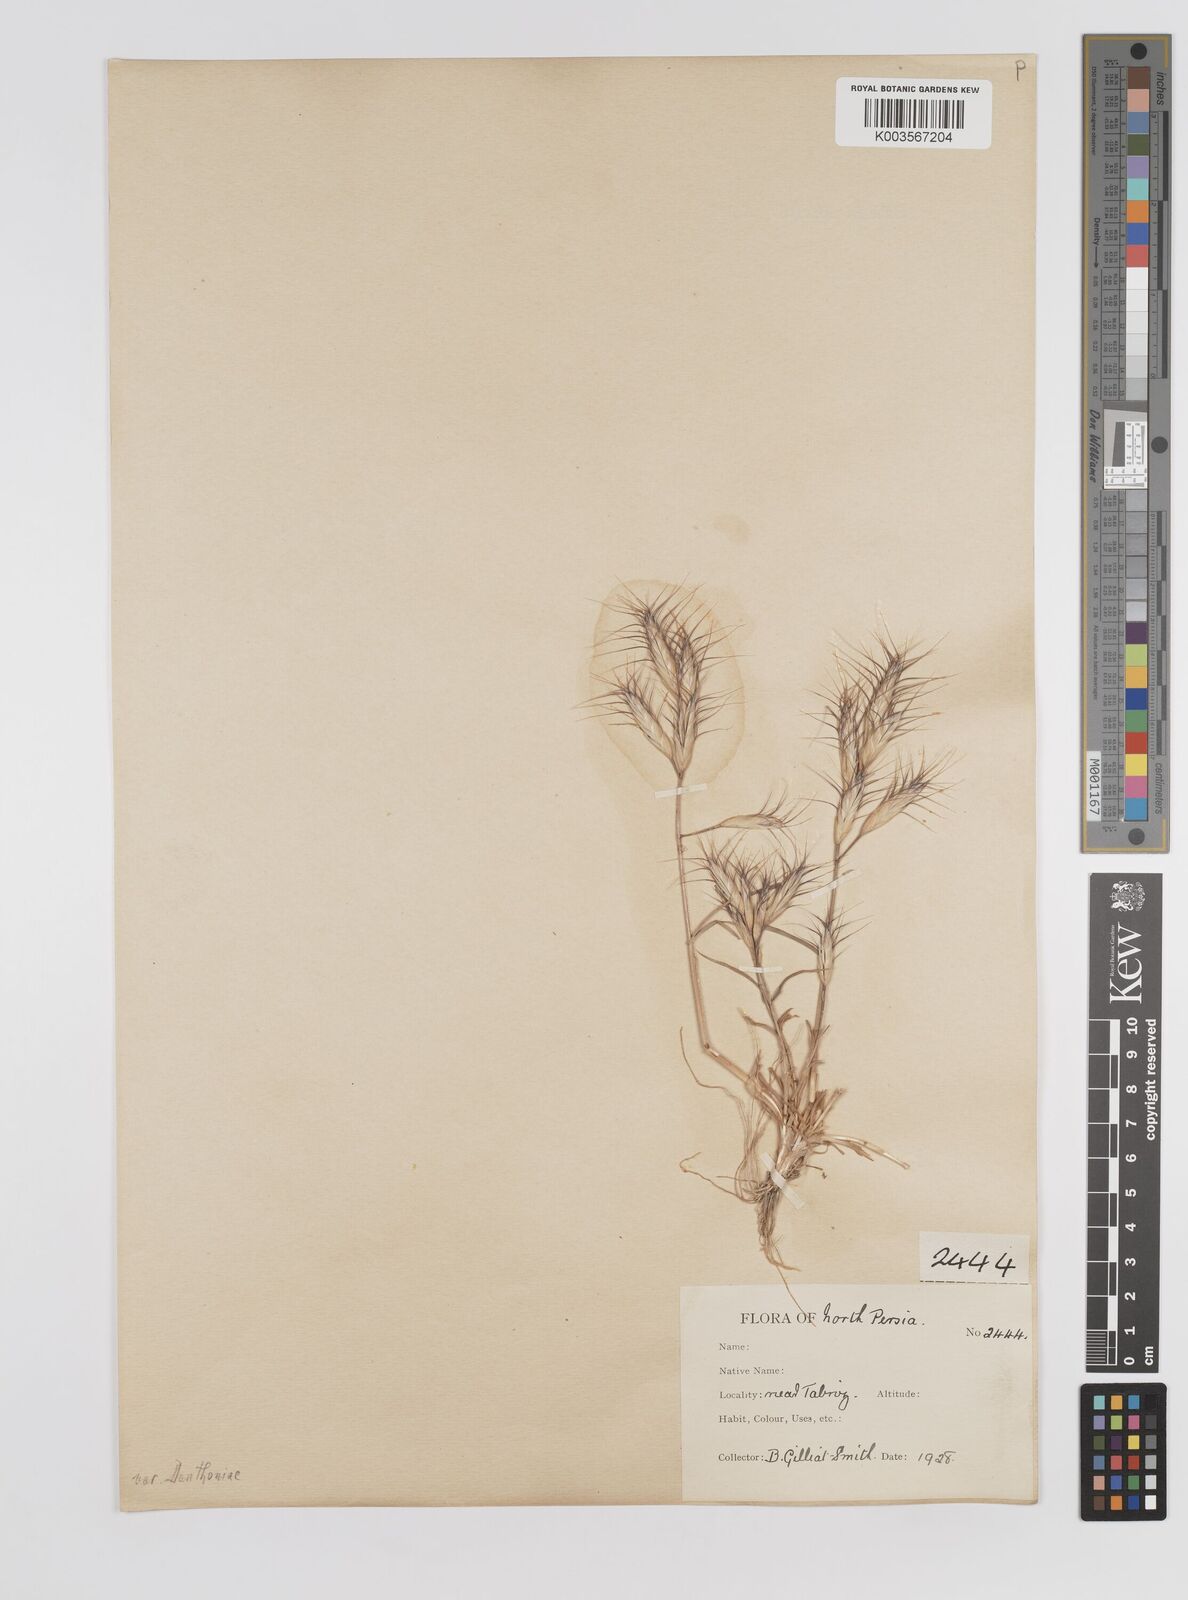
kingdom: Plantae
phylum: Tracheophyta
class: Liliopsida
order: Poales
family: Poaceae
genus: Bromus
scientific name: Bromus danthoniae
